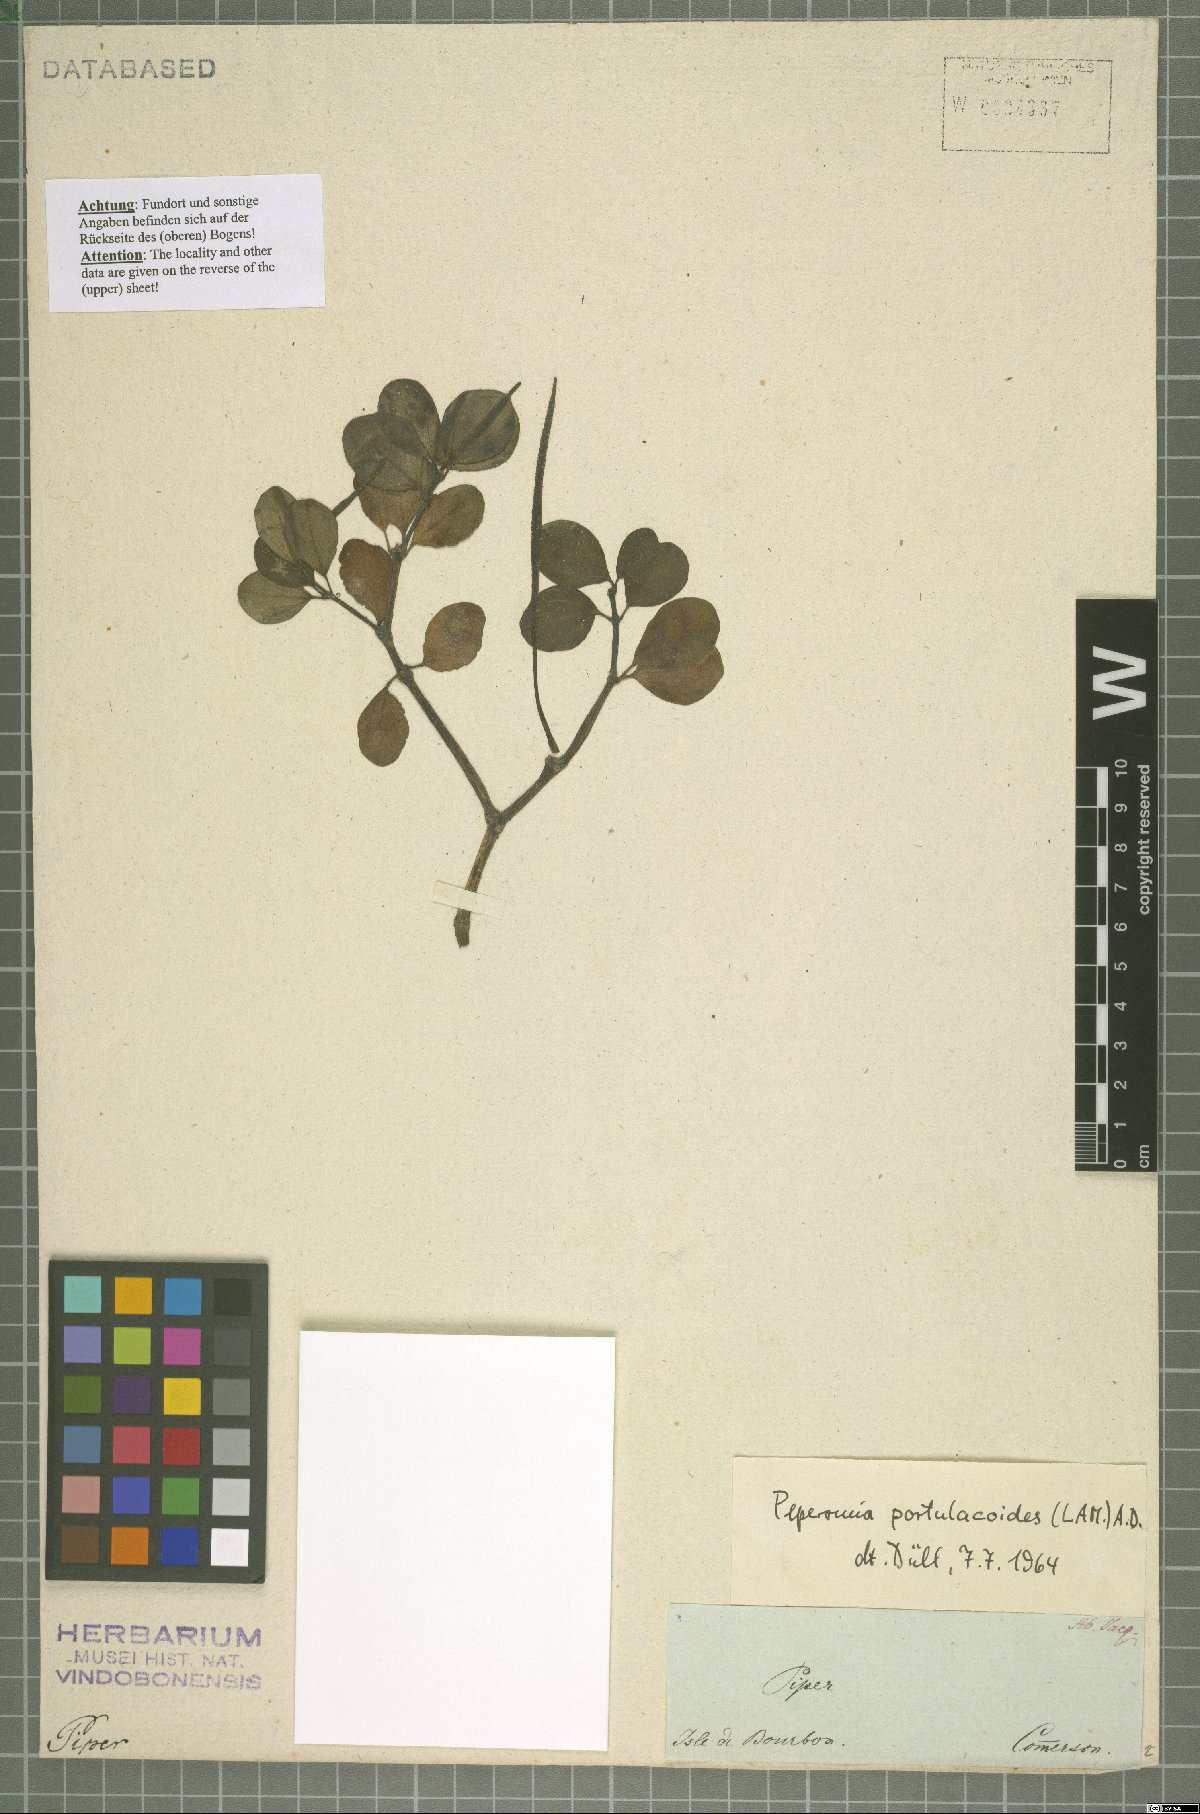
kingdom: Plantae
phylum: Tracheophyta
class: Magnoliopsida
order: Piperales
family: Piperaceae
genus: Peperomia
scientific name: Peperomia portulacoides
